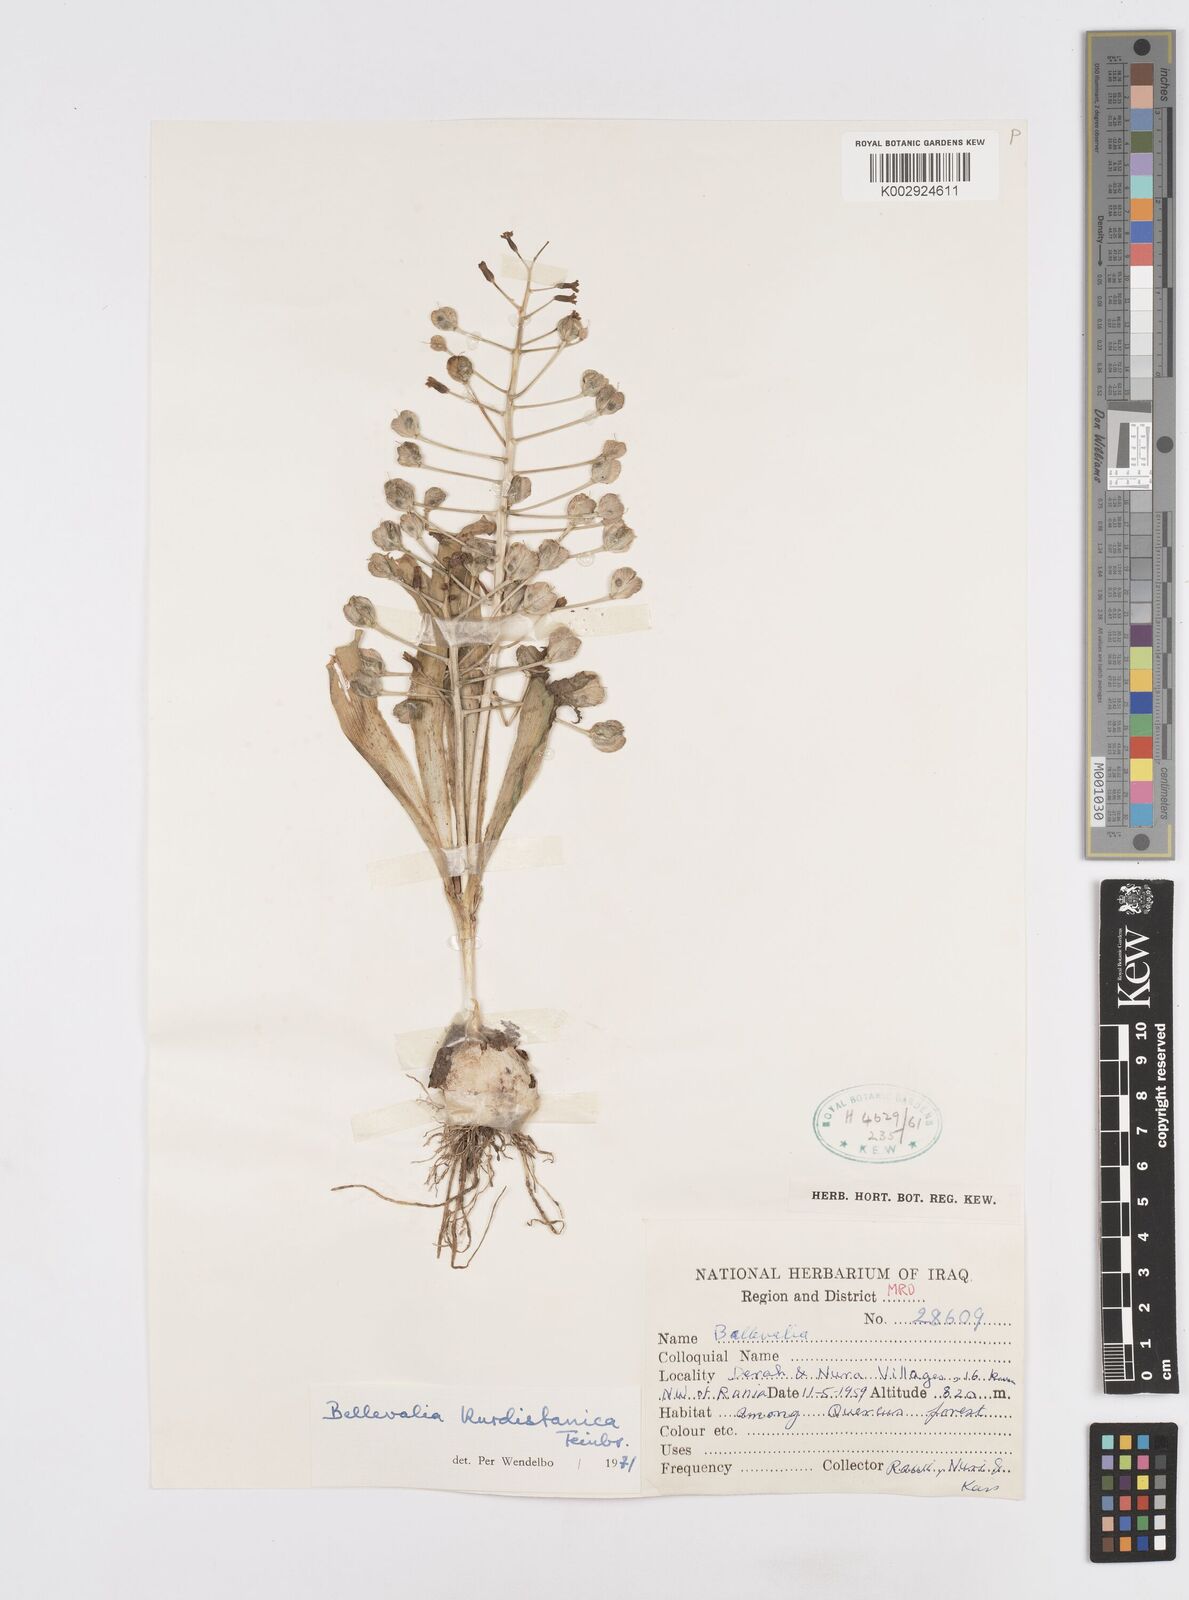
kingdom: Plantae
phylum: Tracheophyta
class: Liliopsida
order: Asparagales
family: Asparagaceae
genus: Bellevalia
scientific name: Bellevalia kurdistanica
